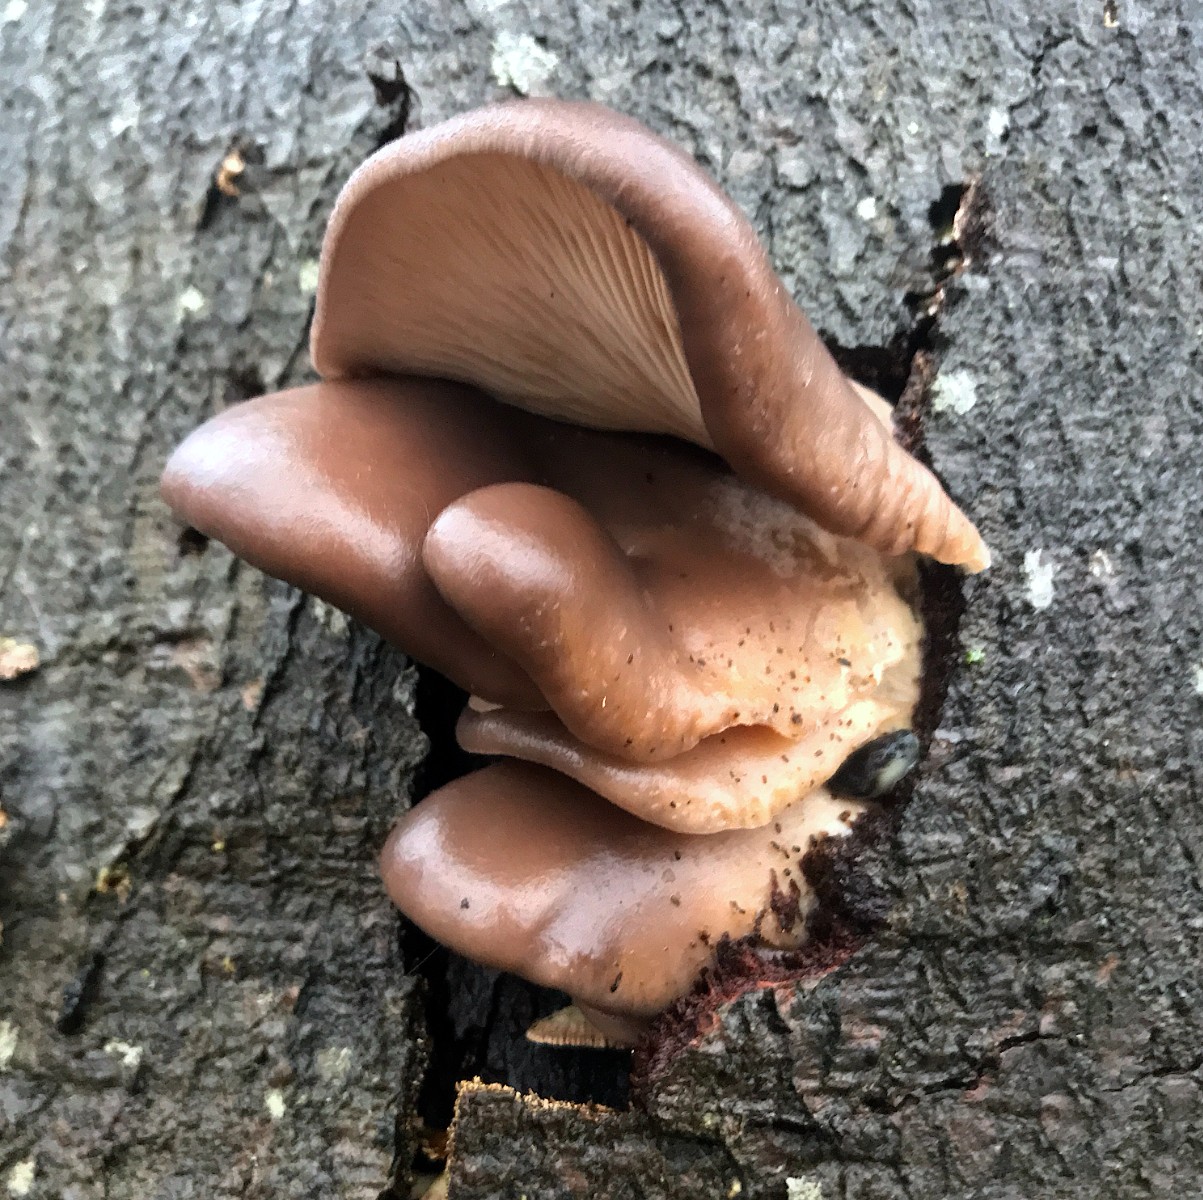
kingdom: Fungi
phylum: Basidiomycota
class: Agaricomycetes
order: Agaricales
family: Pleurotaceae
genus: Pleurotus
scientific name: Pleurotus ostreatus
